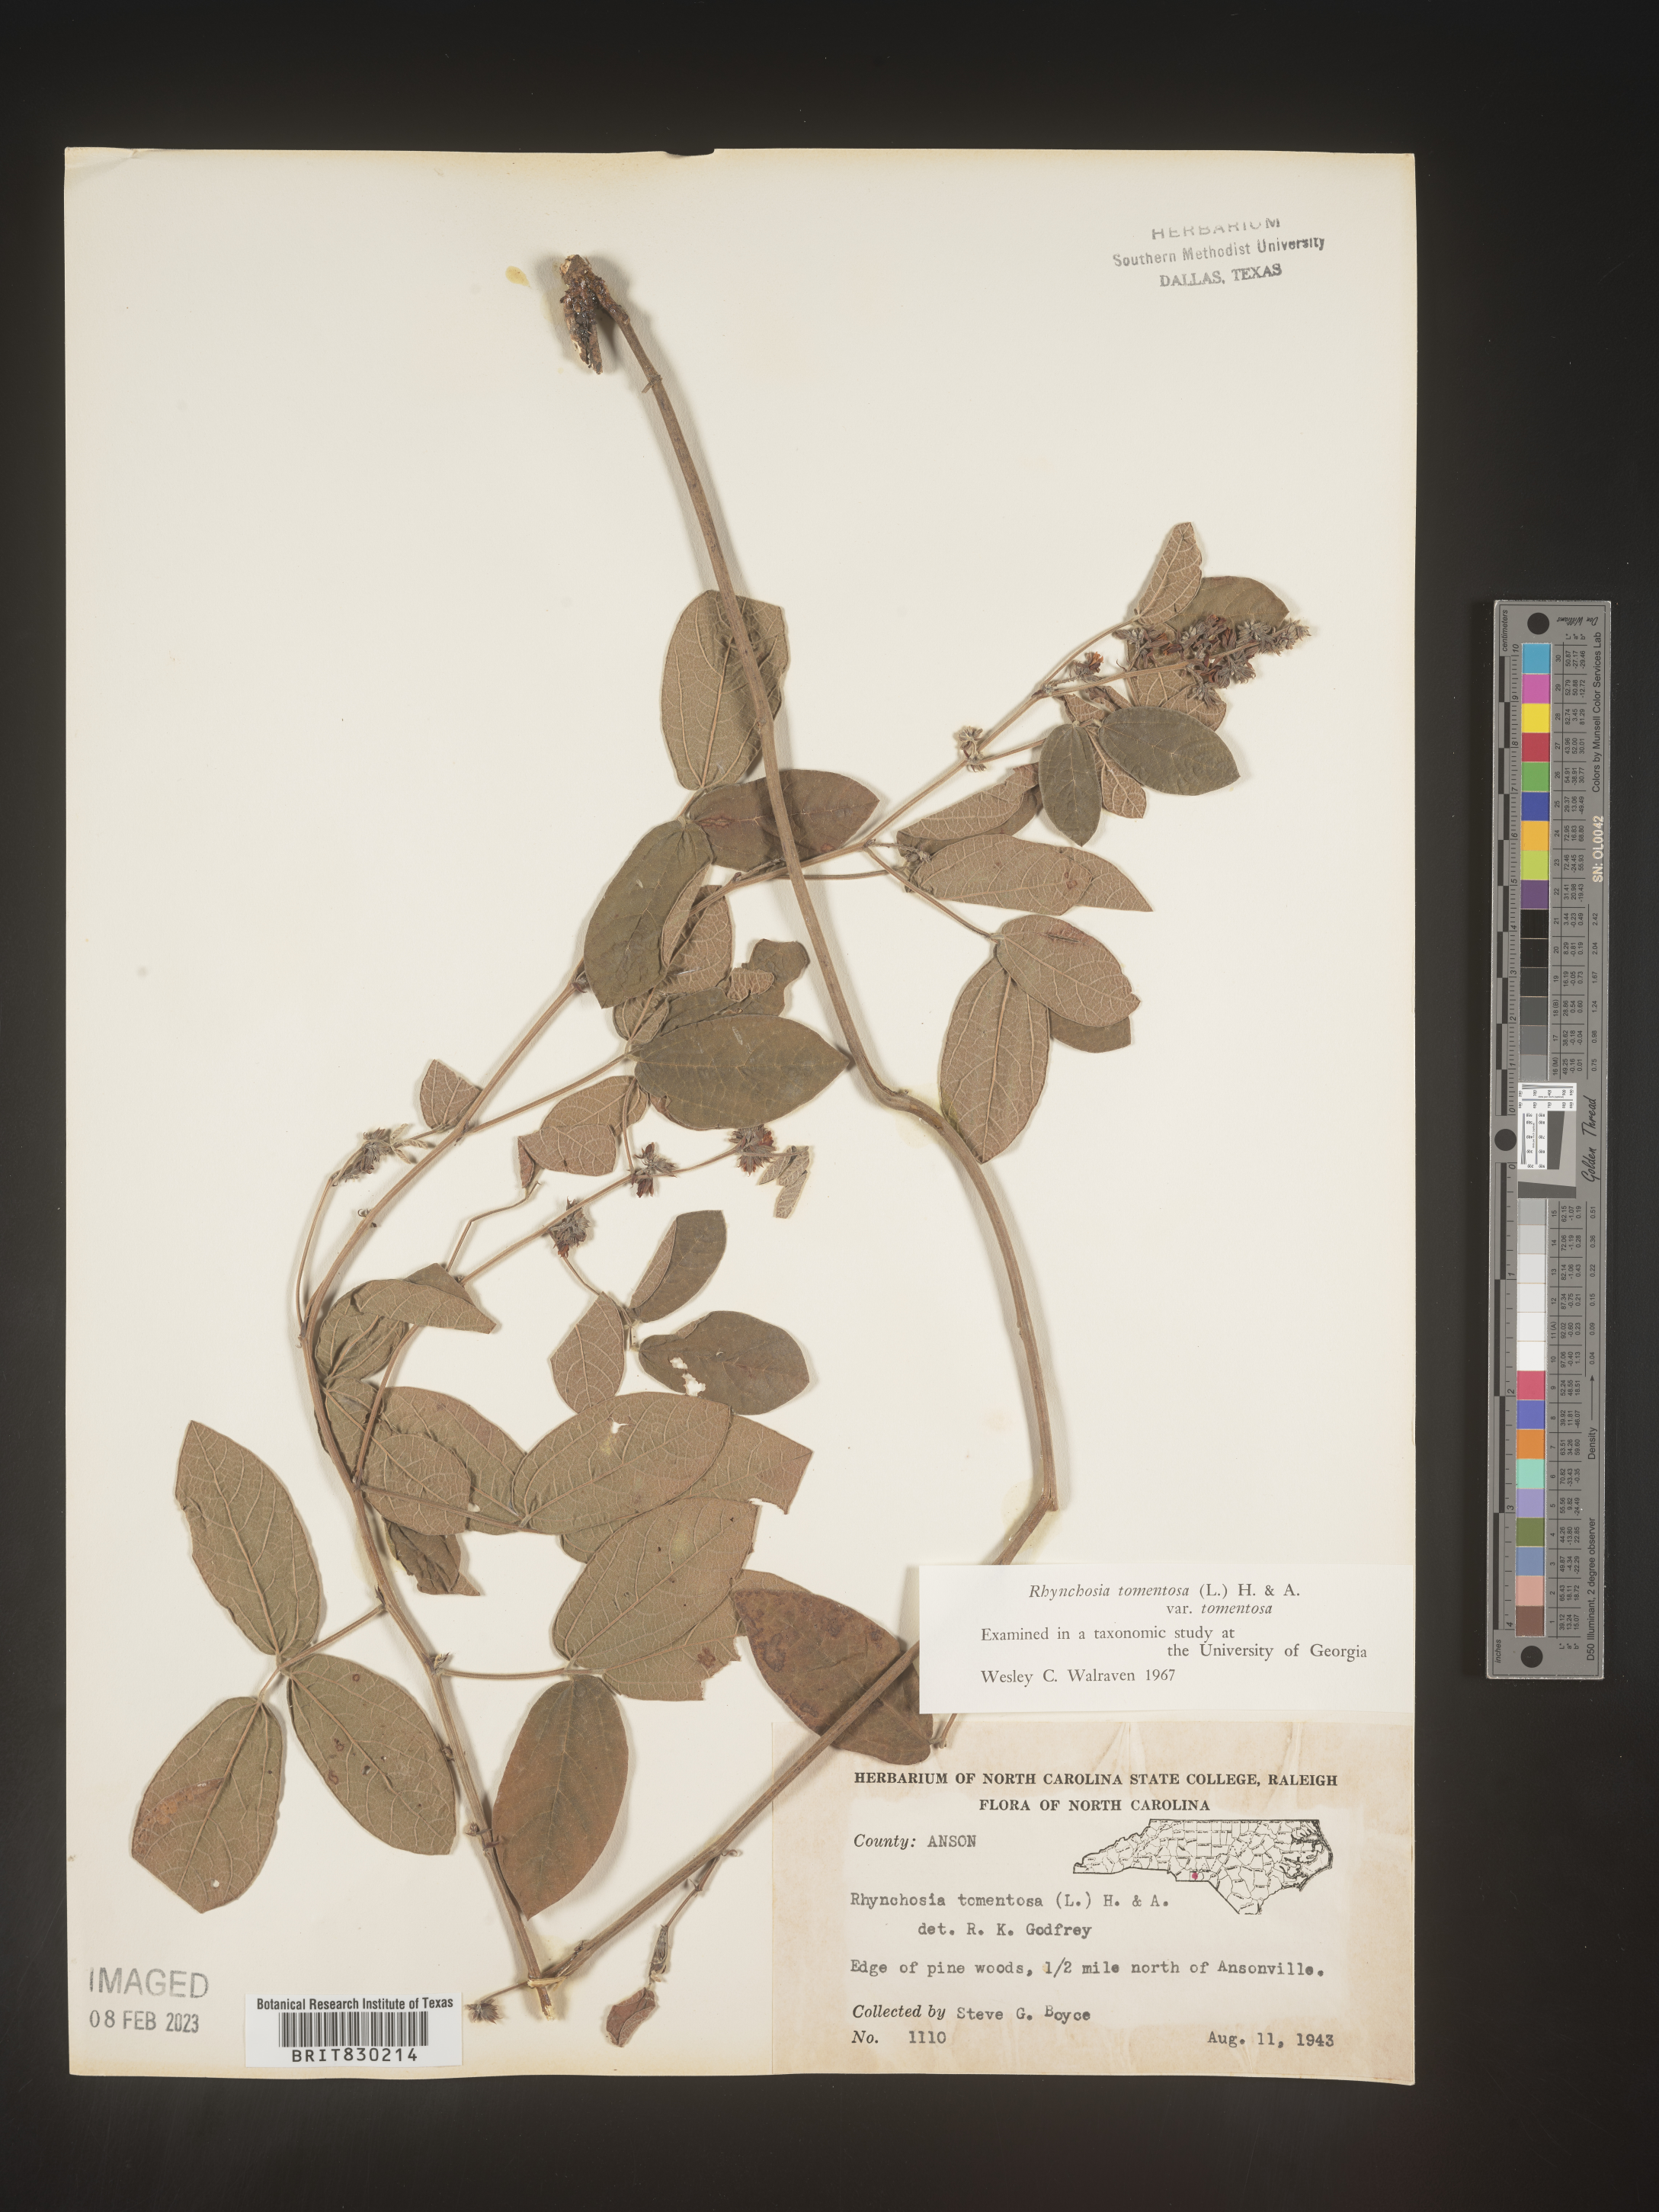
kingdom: Plantae
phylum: Tracheophyta
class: Magnoliopsida
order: Fabales
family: Fabaceae
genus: Rhynchosia
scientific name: Rhynchosia rothii
